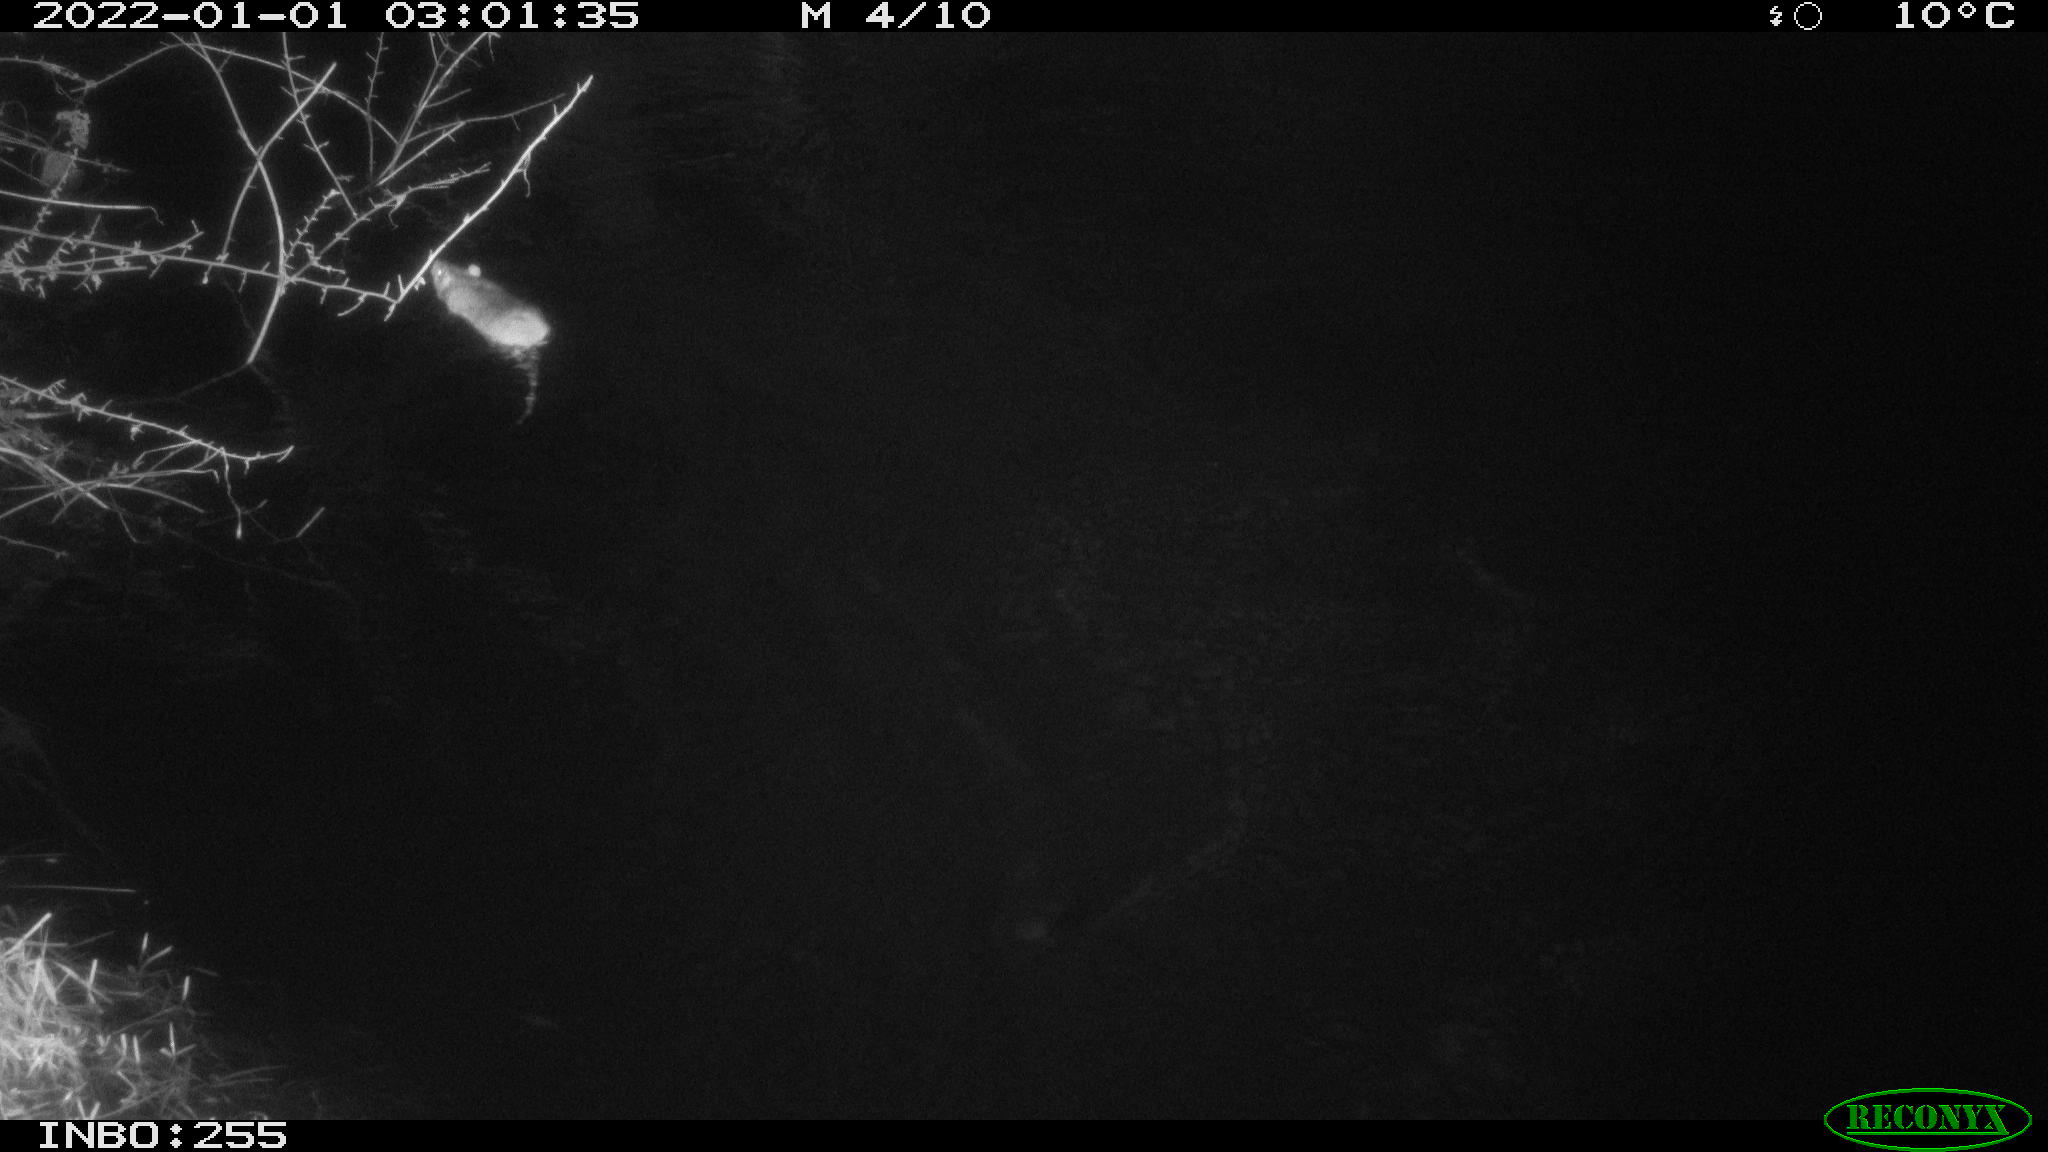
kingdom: Animalia
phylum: Chordata
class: Mammalia
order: Rodentia
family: Muridae
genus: Rattus
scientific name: Rattus norvegicus
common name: Brown rat
